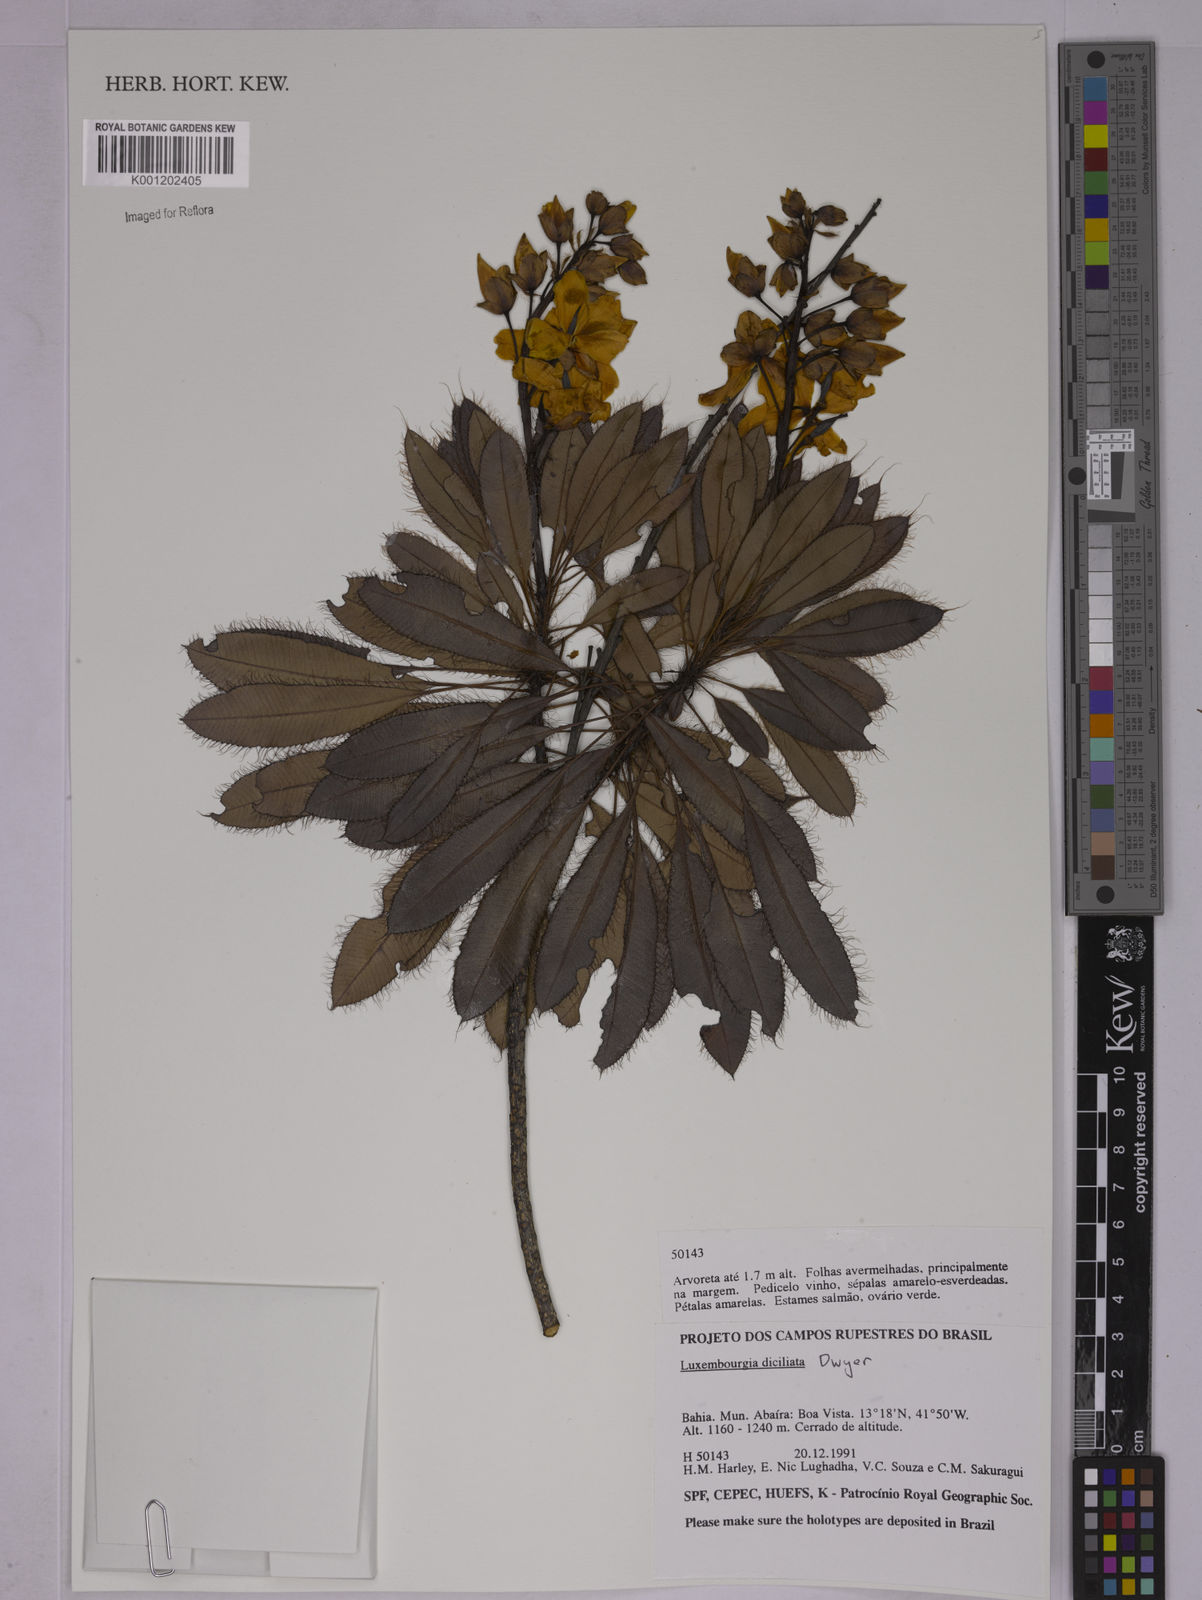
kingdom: Plantae
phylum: Tracheophyta
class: Magnoliopsida
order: Malpighiales
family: Ochnaceae
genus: Luxemburgia
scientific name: Luxemburgia diciliata
